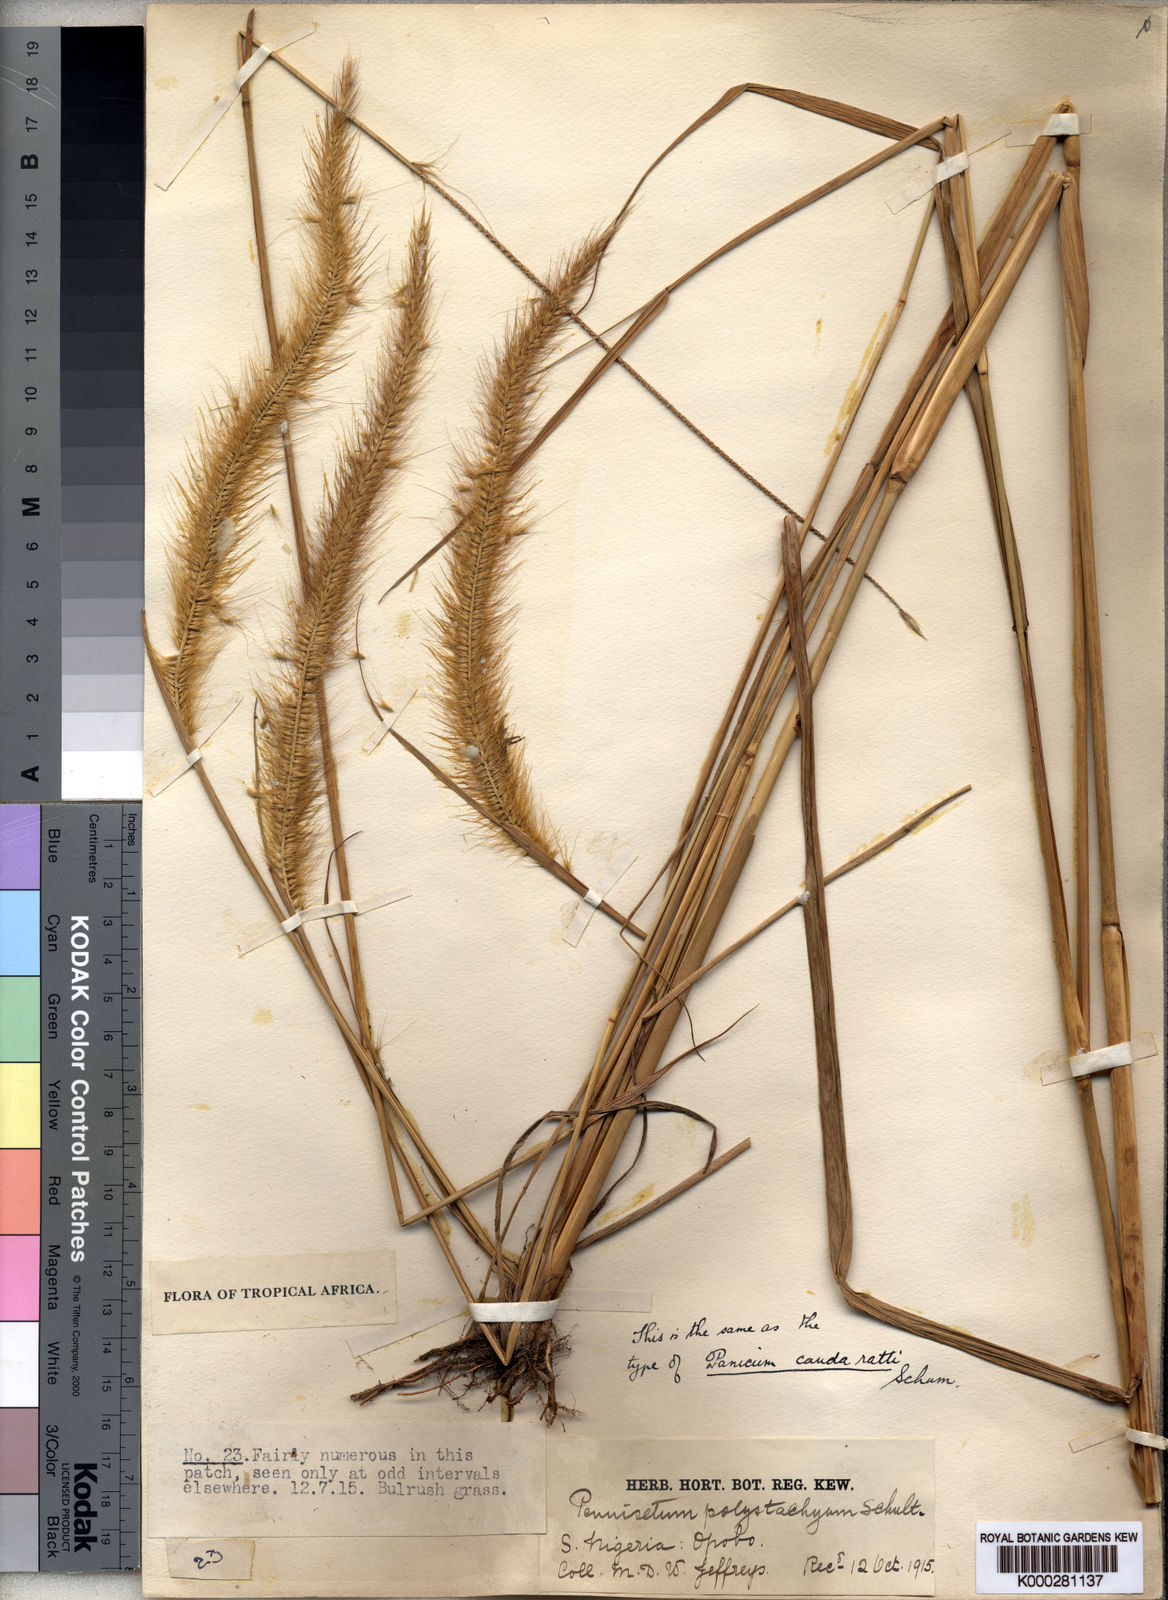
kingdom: Plantae
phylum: Tracheophyta
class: Liliopsida
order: Poales
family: Poaceae
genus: Setaria
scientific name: Setaria parviflora
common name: Knotroot bristle-grass
